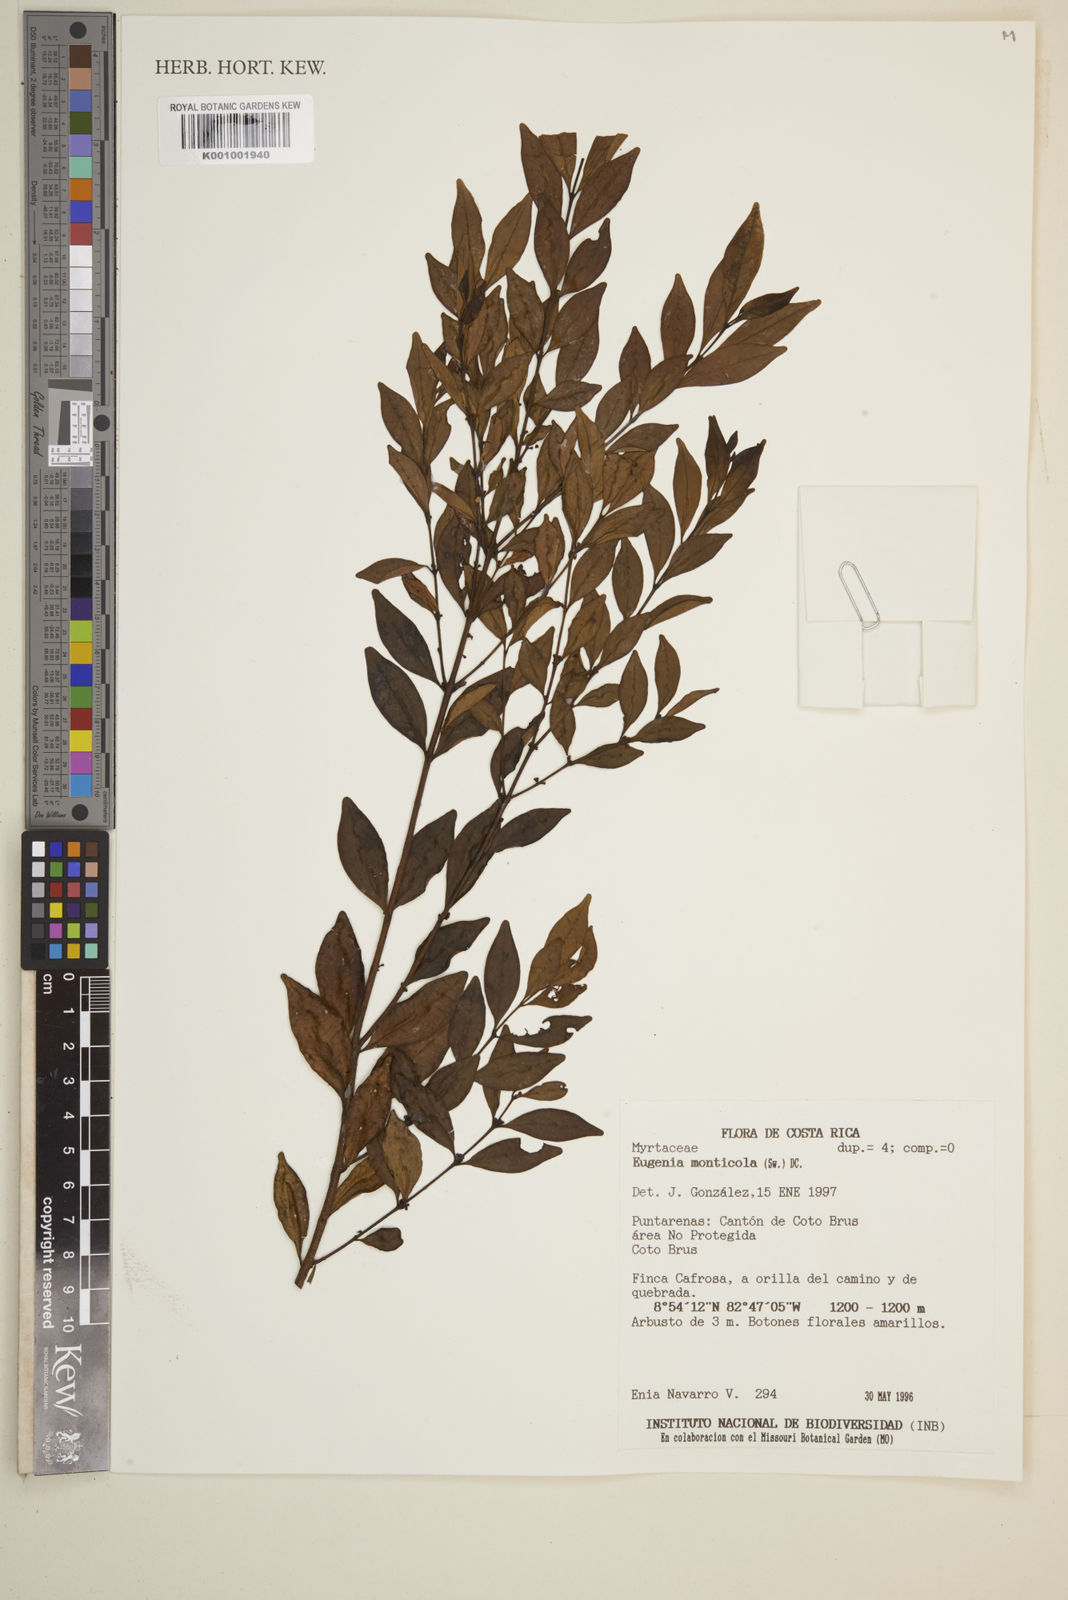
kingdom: Plantae
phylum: Tracheophyta
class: Magnoliopsida
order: Myrtales
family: Myrtaceae
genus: Eugenia
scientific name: Eugenia monticola
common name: Birds berry
